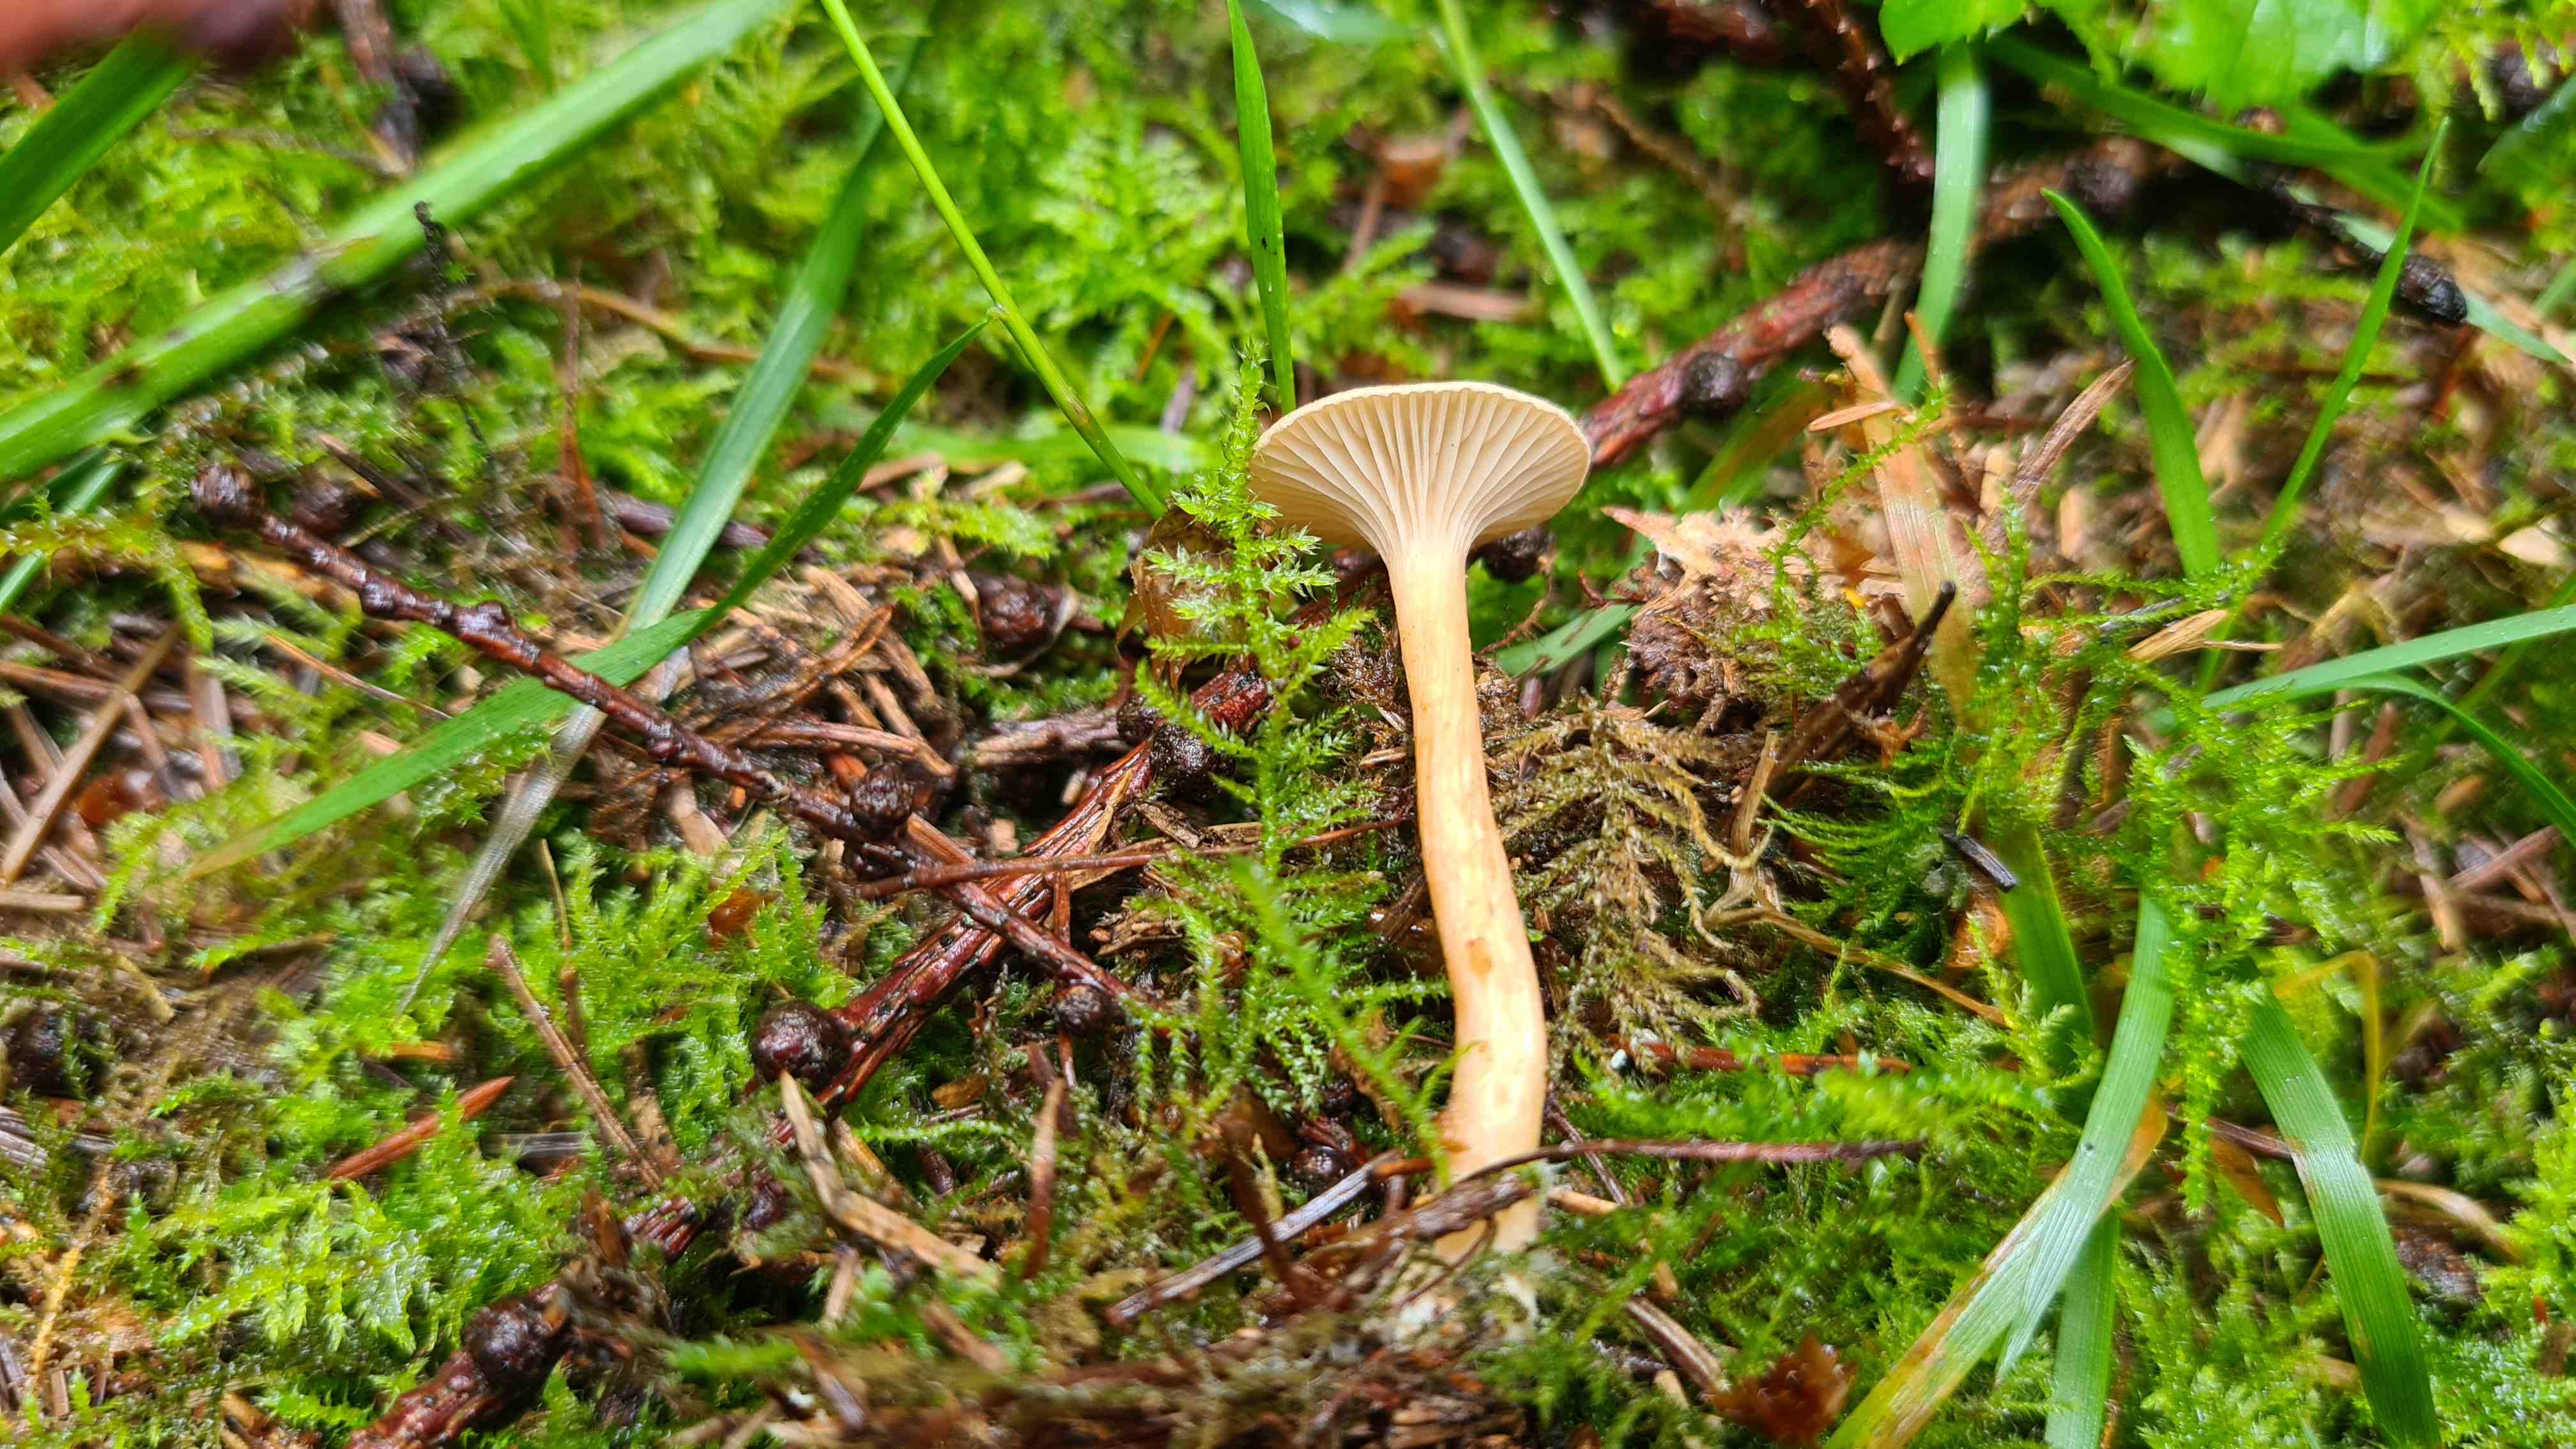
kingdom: Fungi
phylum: Basidiomycota
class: Agaricomycetes
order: Agaricales
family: Tricholomataceae
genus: Infundibulicybe
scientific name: Infundibulicybe
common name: tragthat
